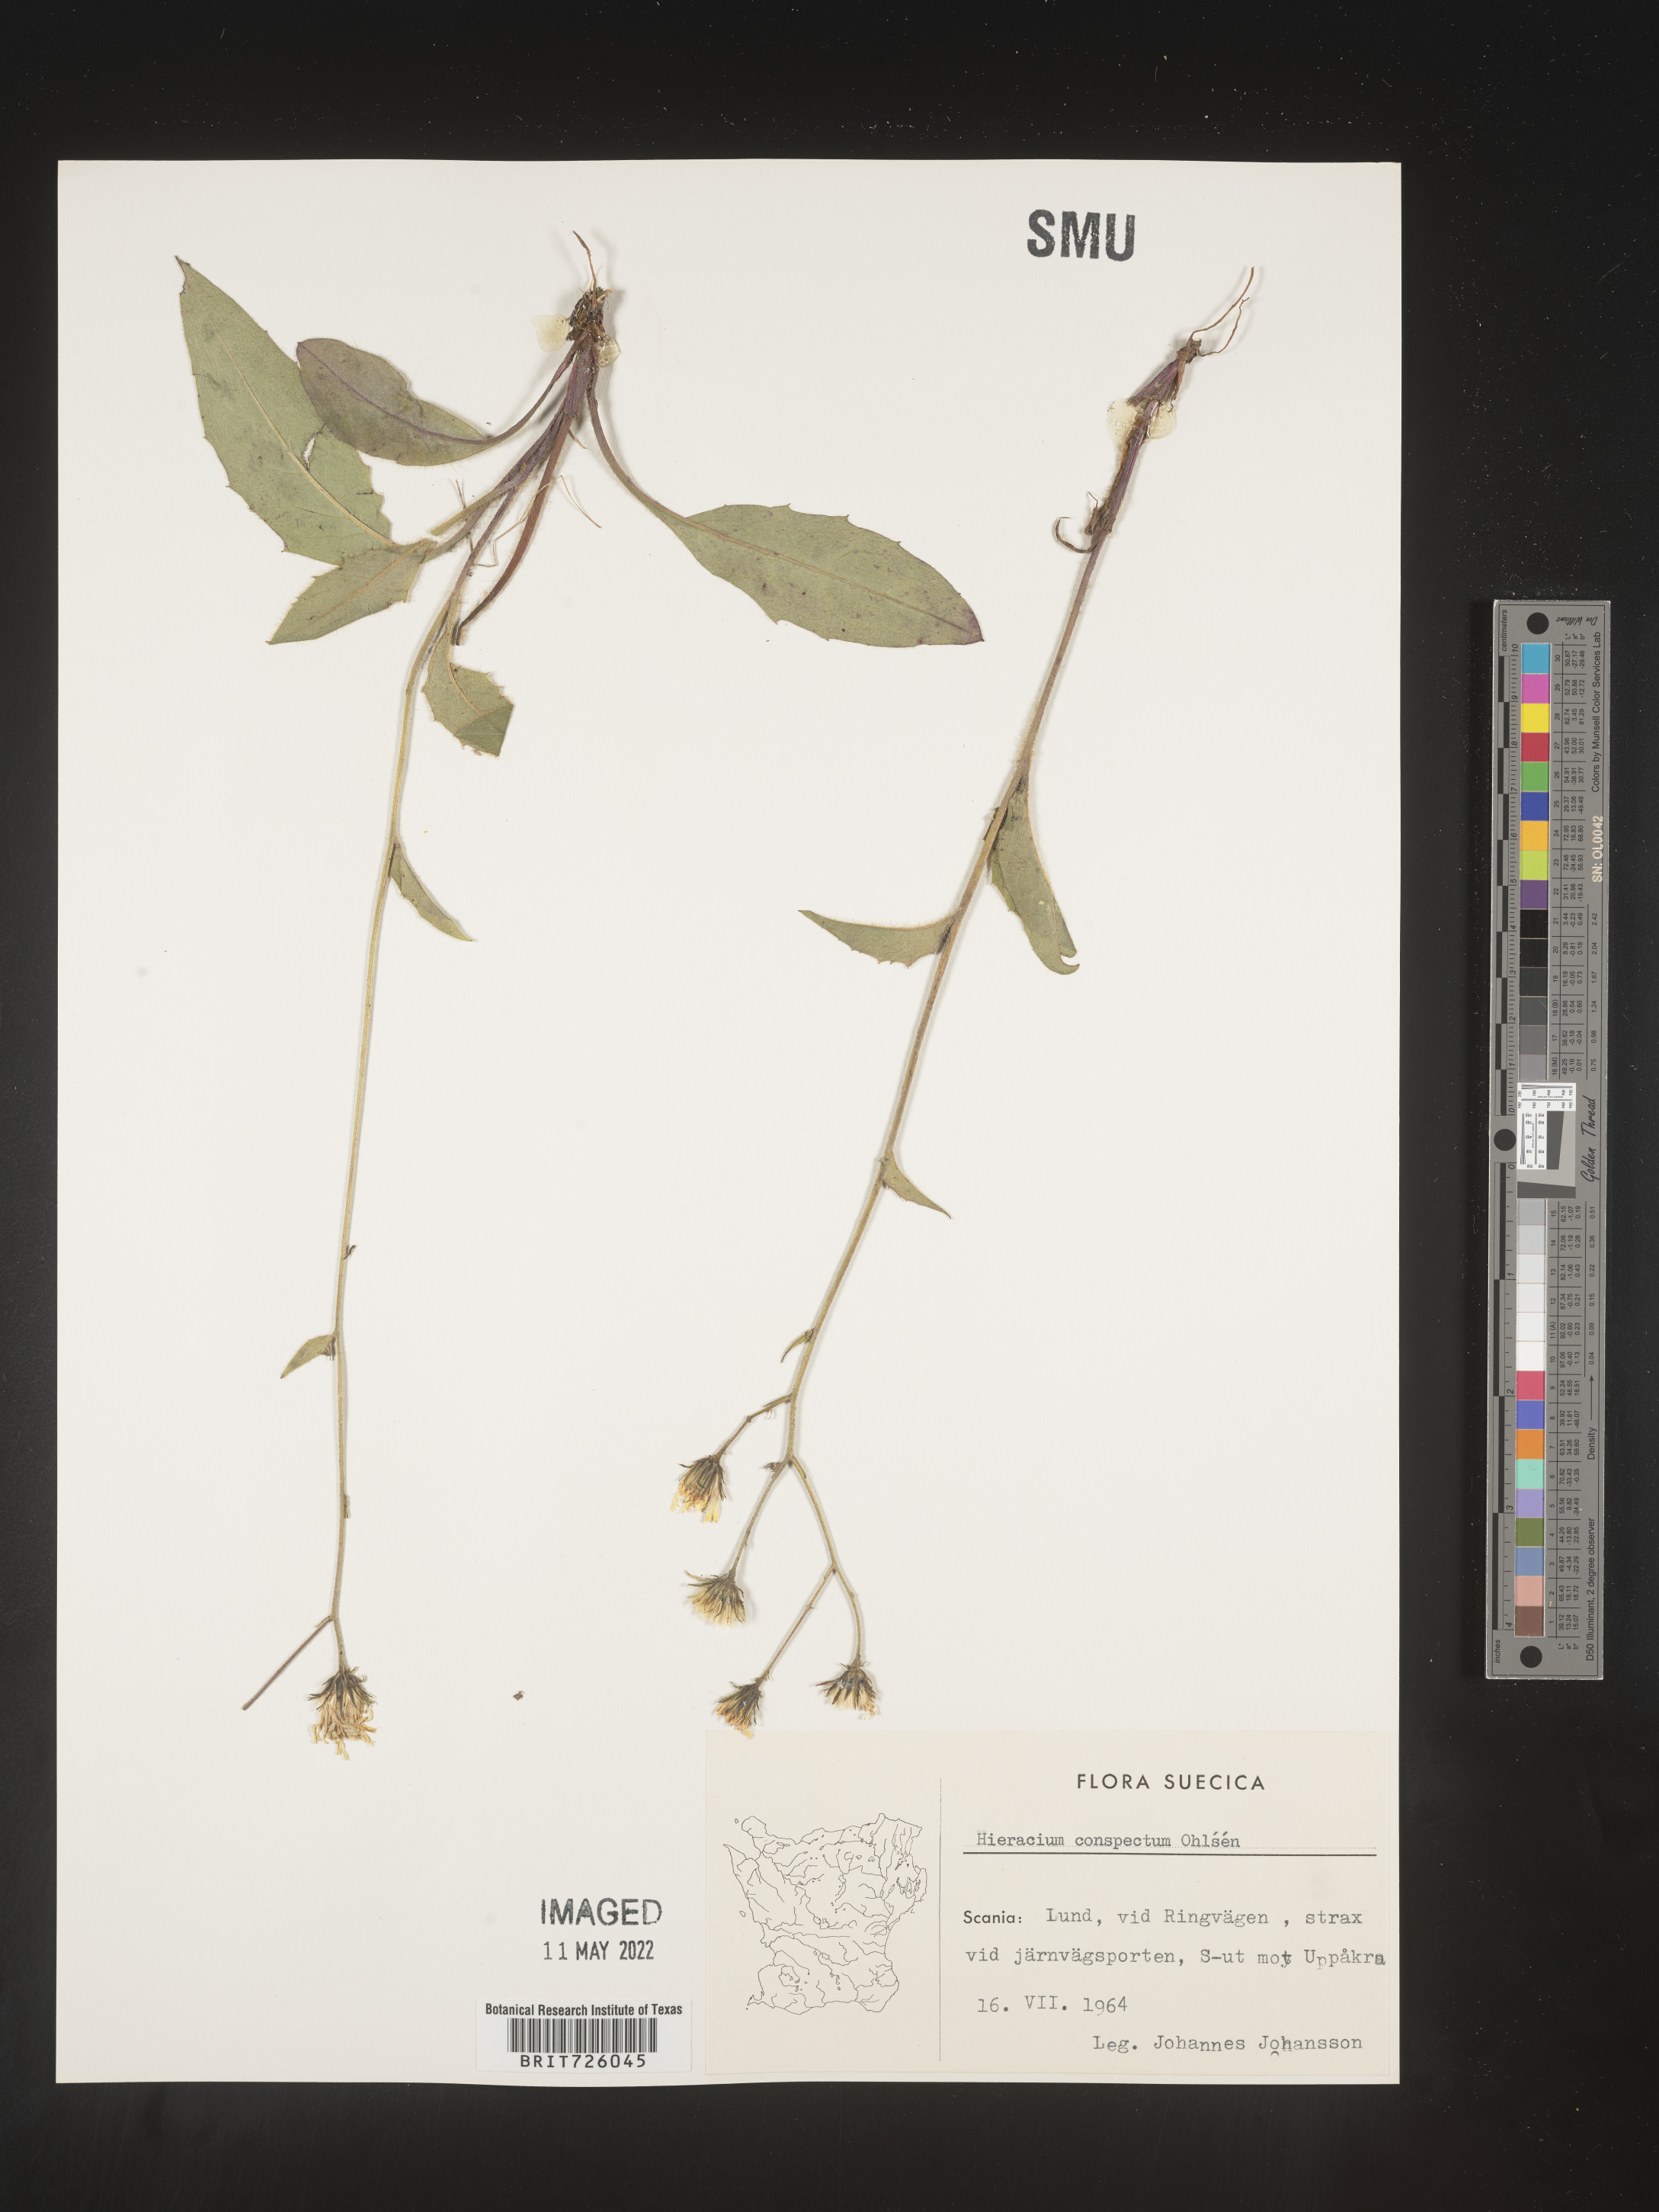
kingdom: Plantae
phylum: Tracheophyta
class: Magnoliopsida
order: Asterales
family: Asteraceae
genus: Hieracium
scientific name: Hieracium
